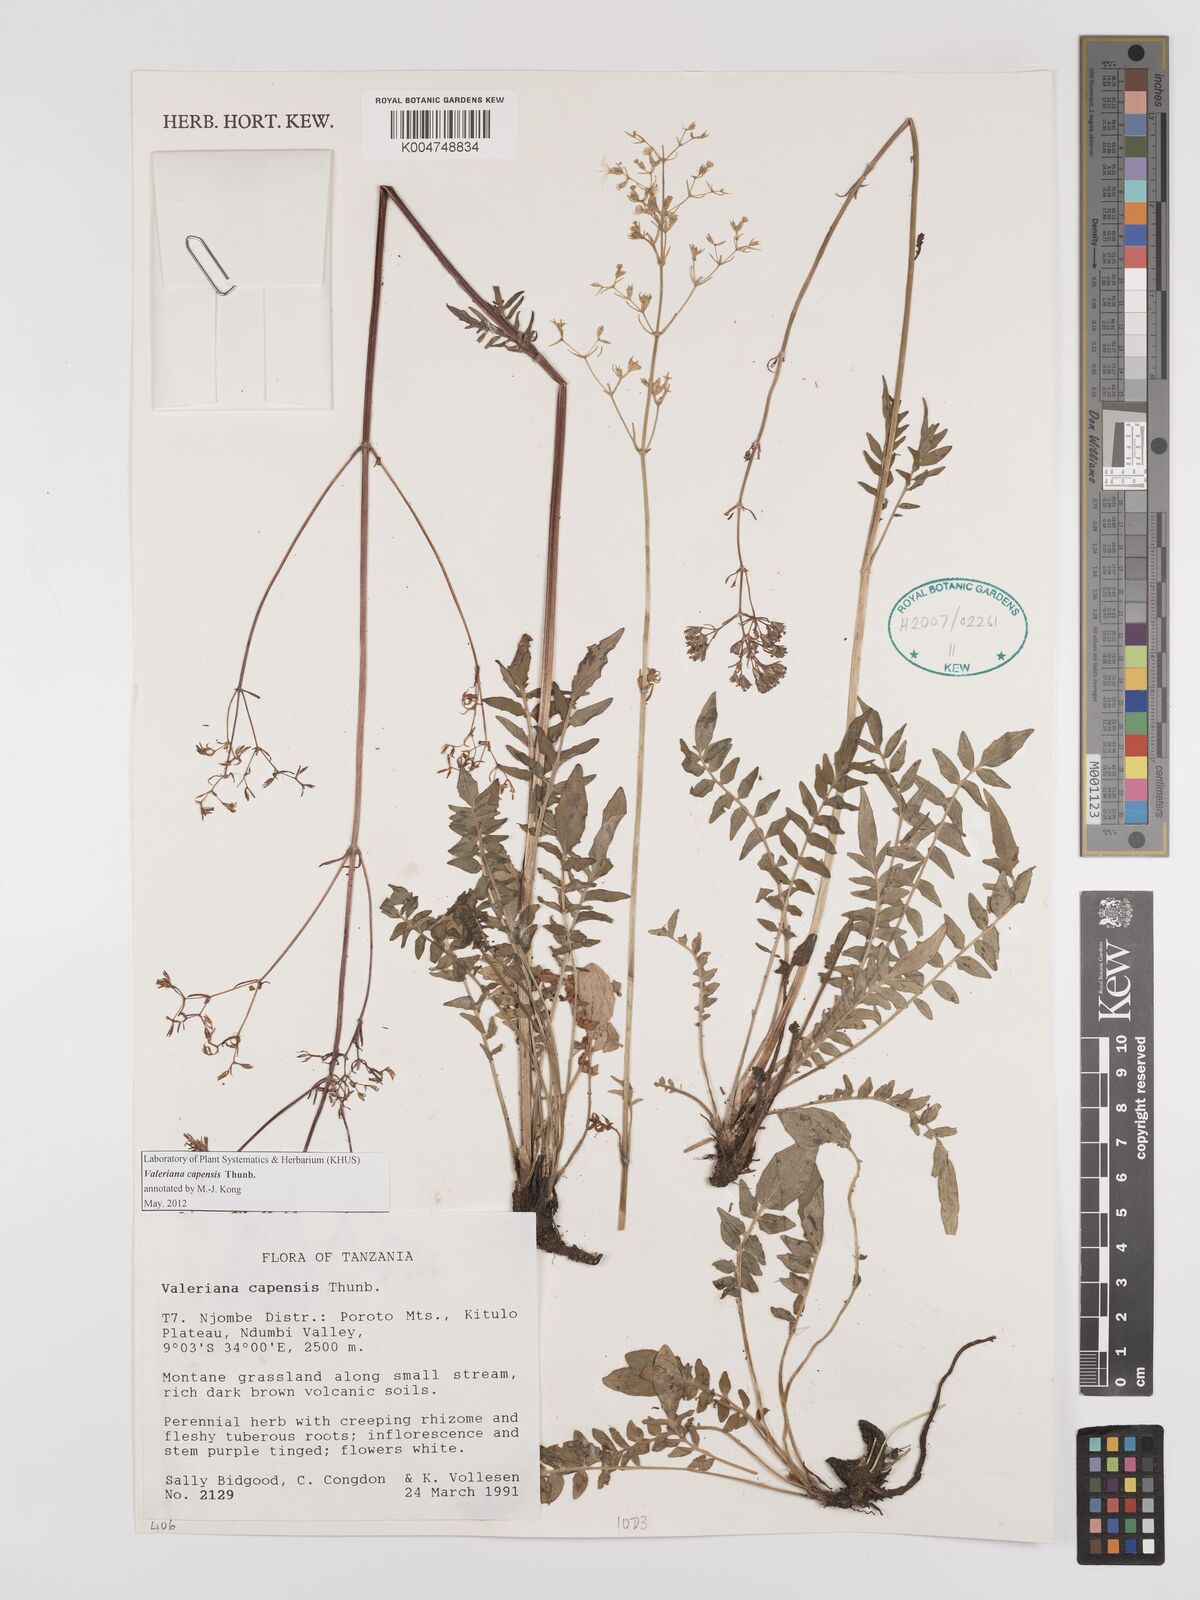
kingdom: Plantae
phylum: Tracheophyta
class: Magnoliopsida
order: Dipsacales
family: Caprifoliaceae
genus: Valeriana
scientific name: Valeriana capensis
